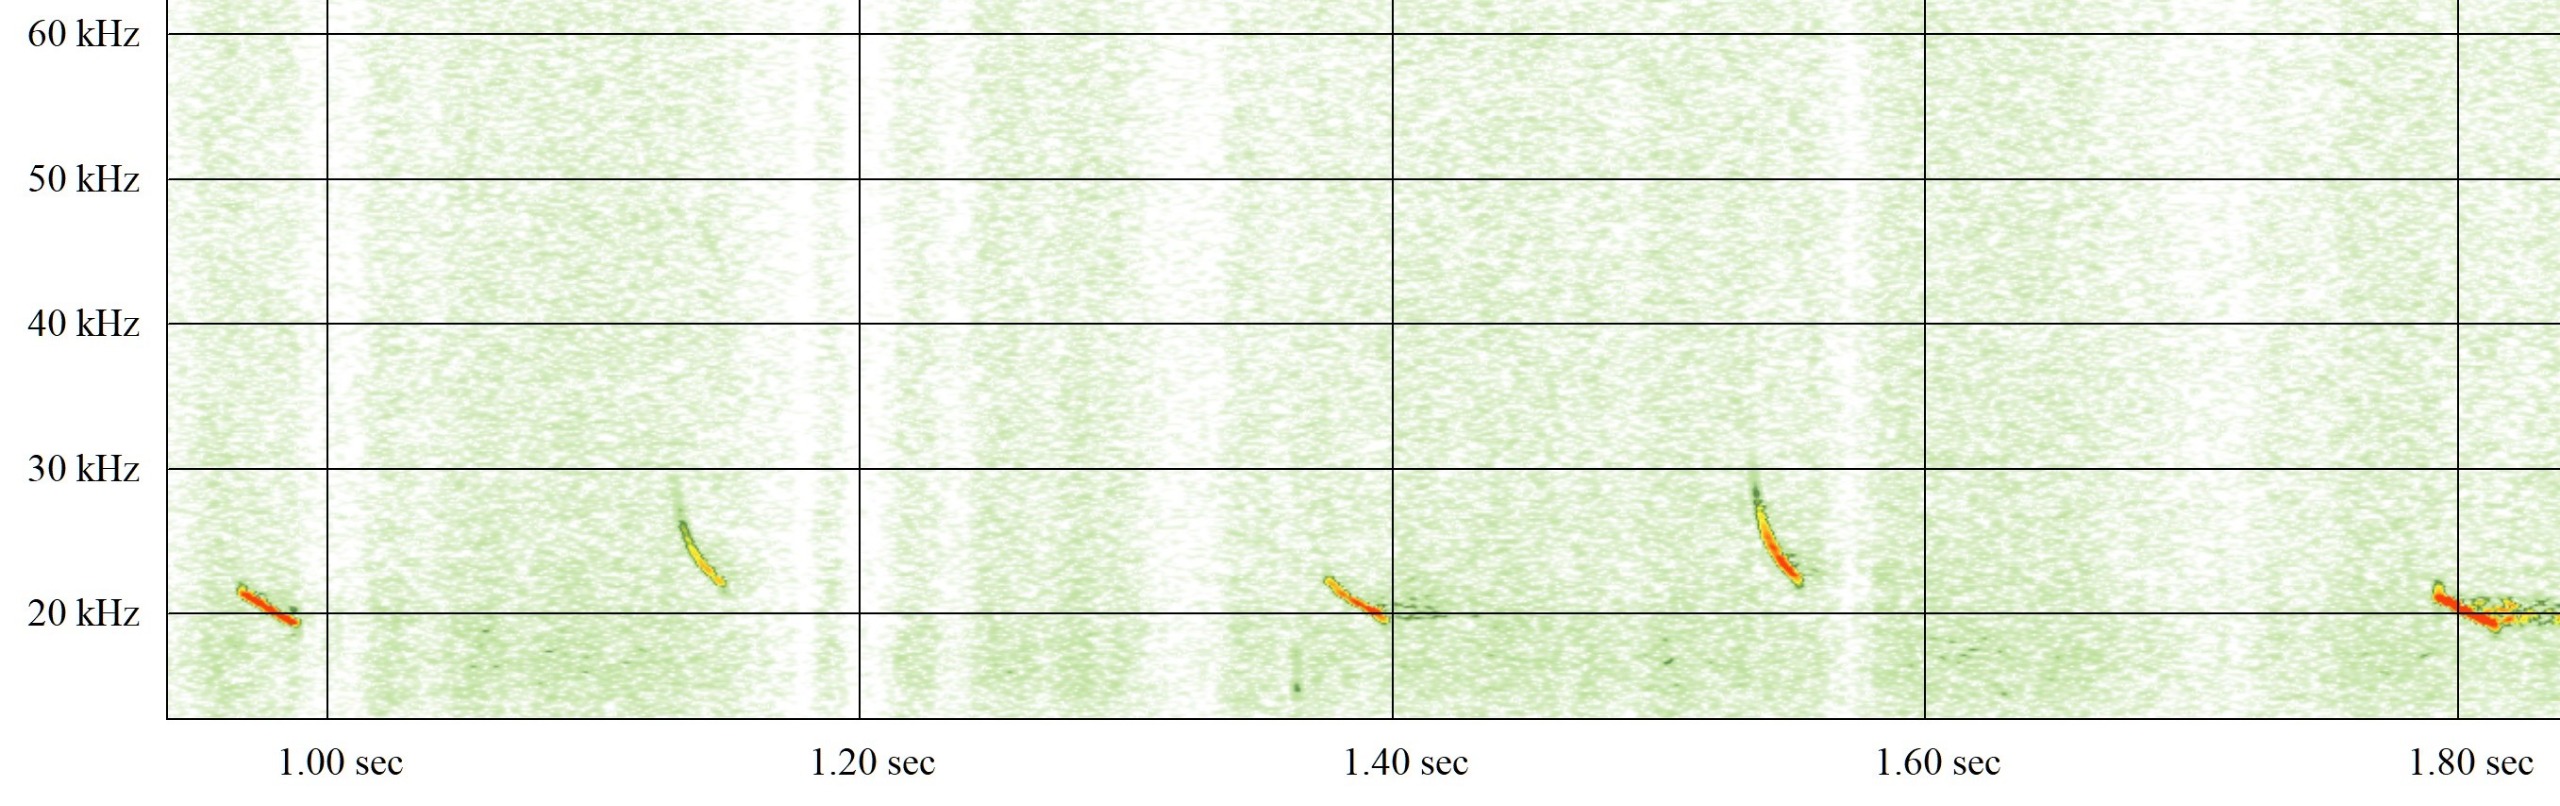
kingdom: Animalia
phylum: Chordata
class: Mammalia
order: Chiroptera
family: Vespertilionidae
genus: Nyctalus
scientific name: Nyctalus noctula
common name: Brunflagermus
